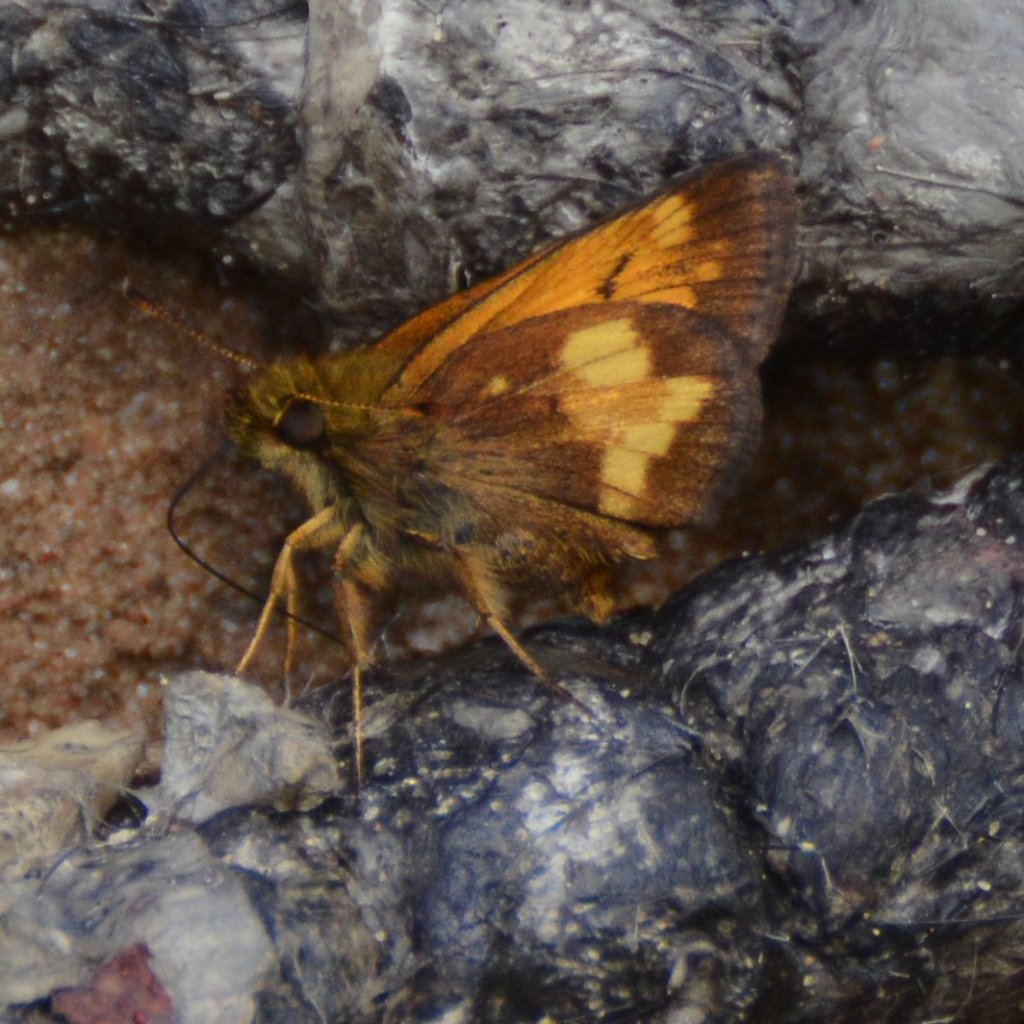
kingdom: Animalia
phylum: Arthropoda
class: Insecta
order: Lepidoptera
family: Hesperiidae
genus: Lon
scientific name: Lon hobomok
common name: Hobomok Skipper
